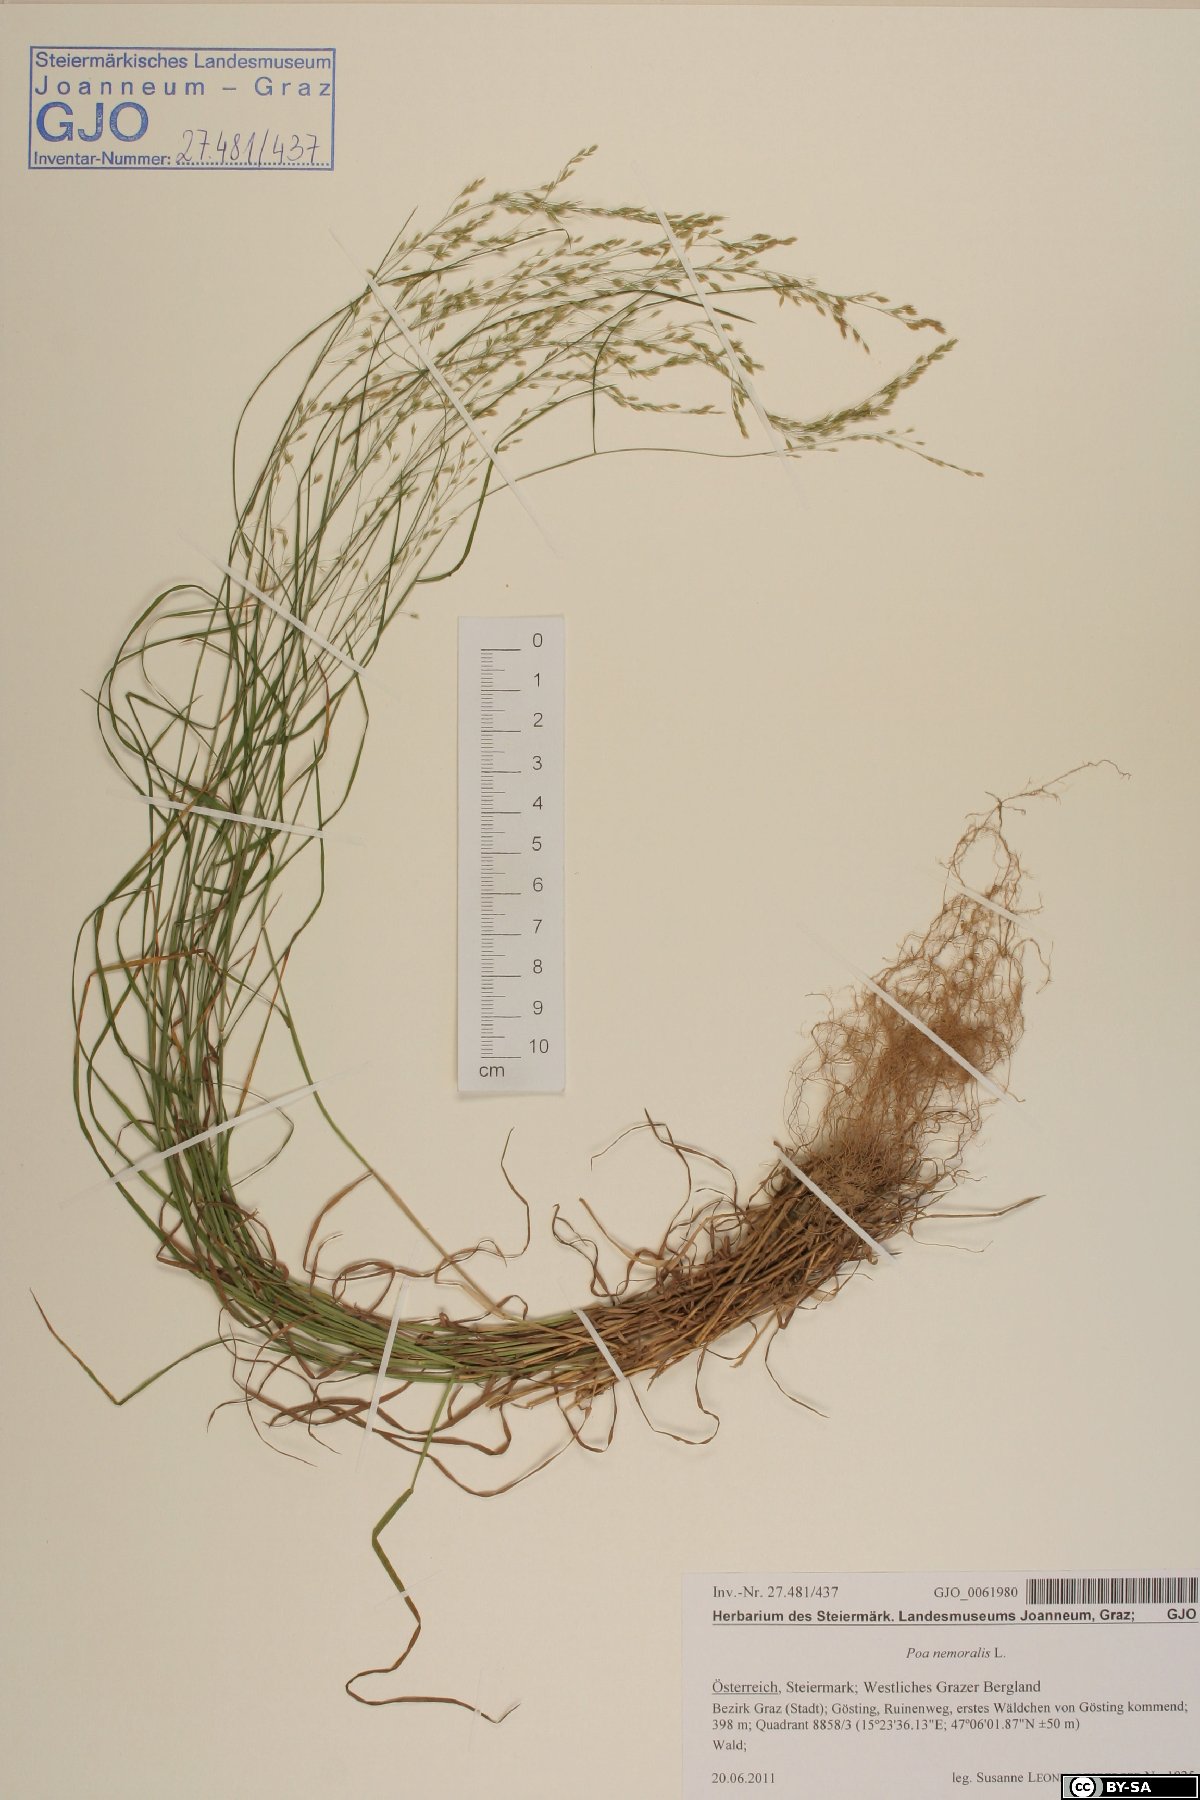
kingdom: Plantae
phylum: Tracheophyta
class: Liliopsida
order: Poales
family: Poaceae
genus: Poa
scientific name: Poa nemoralis
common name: Wood bluegrass
